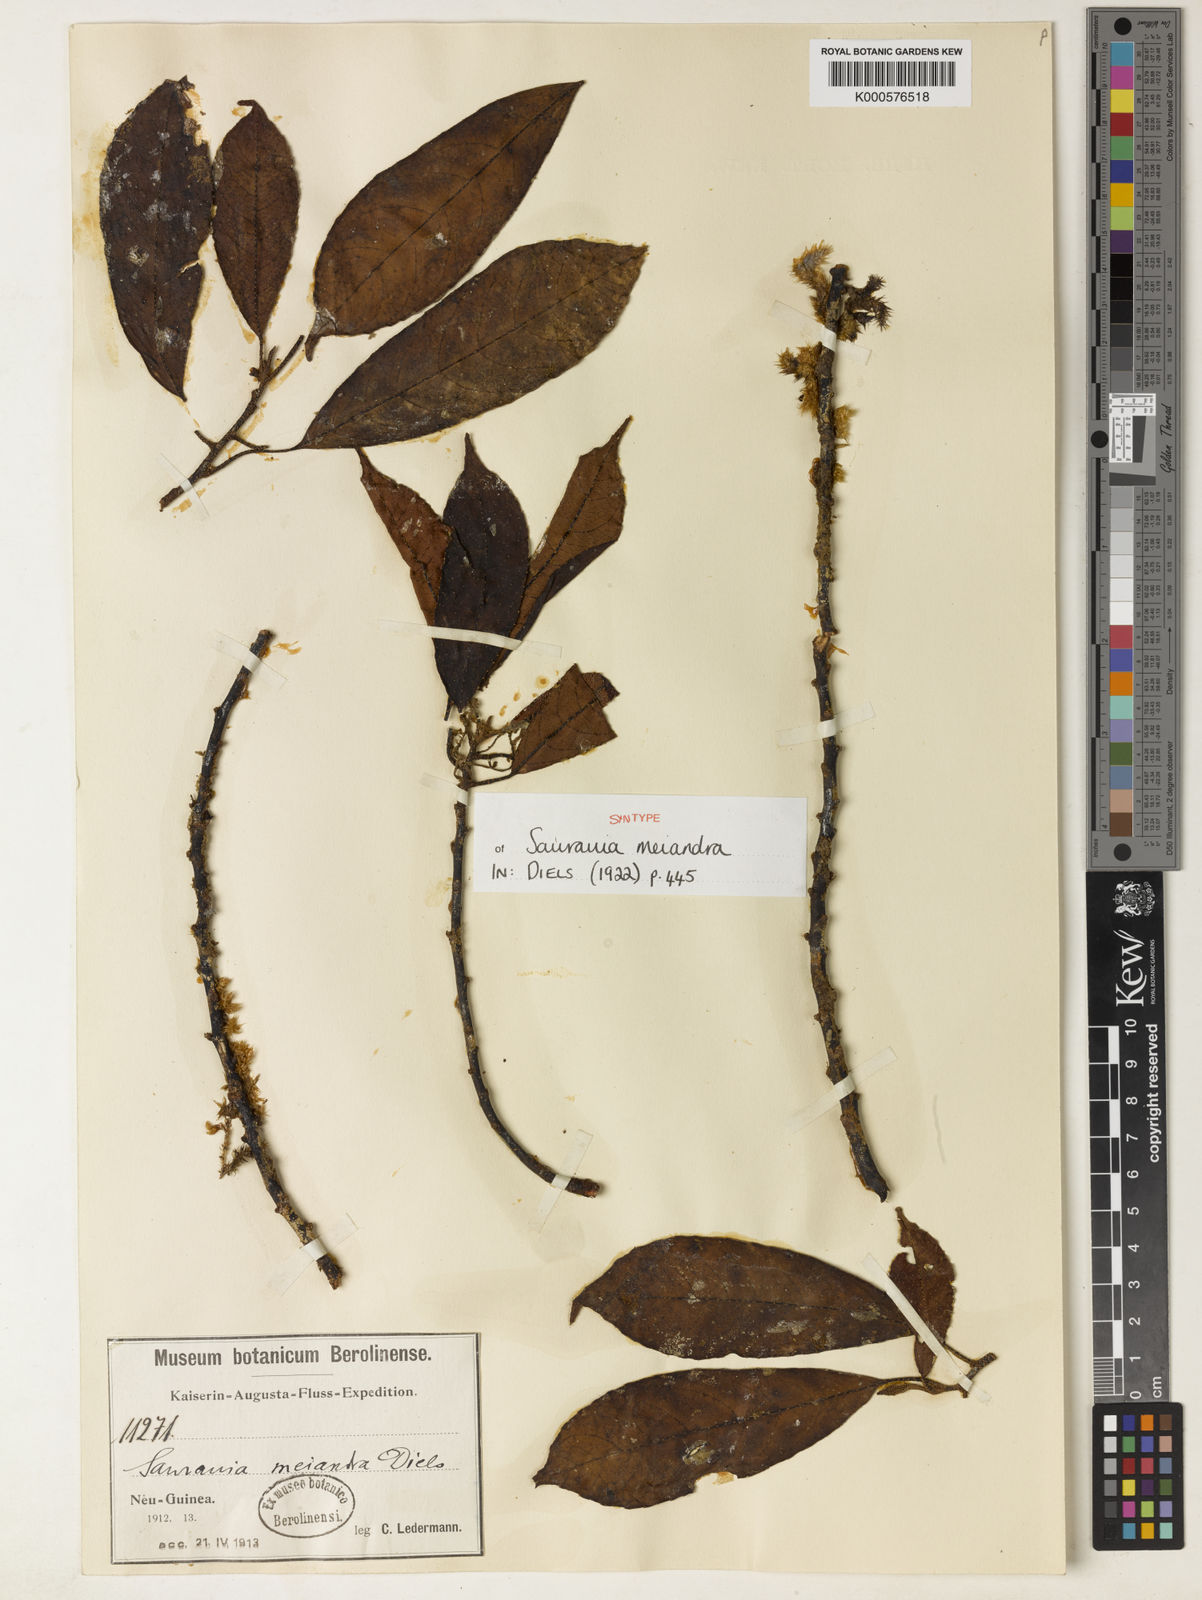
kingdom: Plantae
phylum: Tracheophyta
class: Magnoliopsida
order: Ericales
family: Actinidiaceae
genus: Saurauia
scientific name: Saurauia
